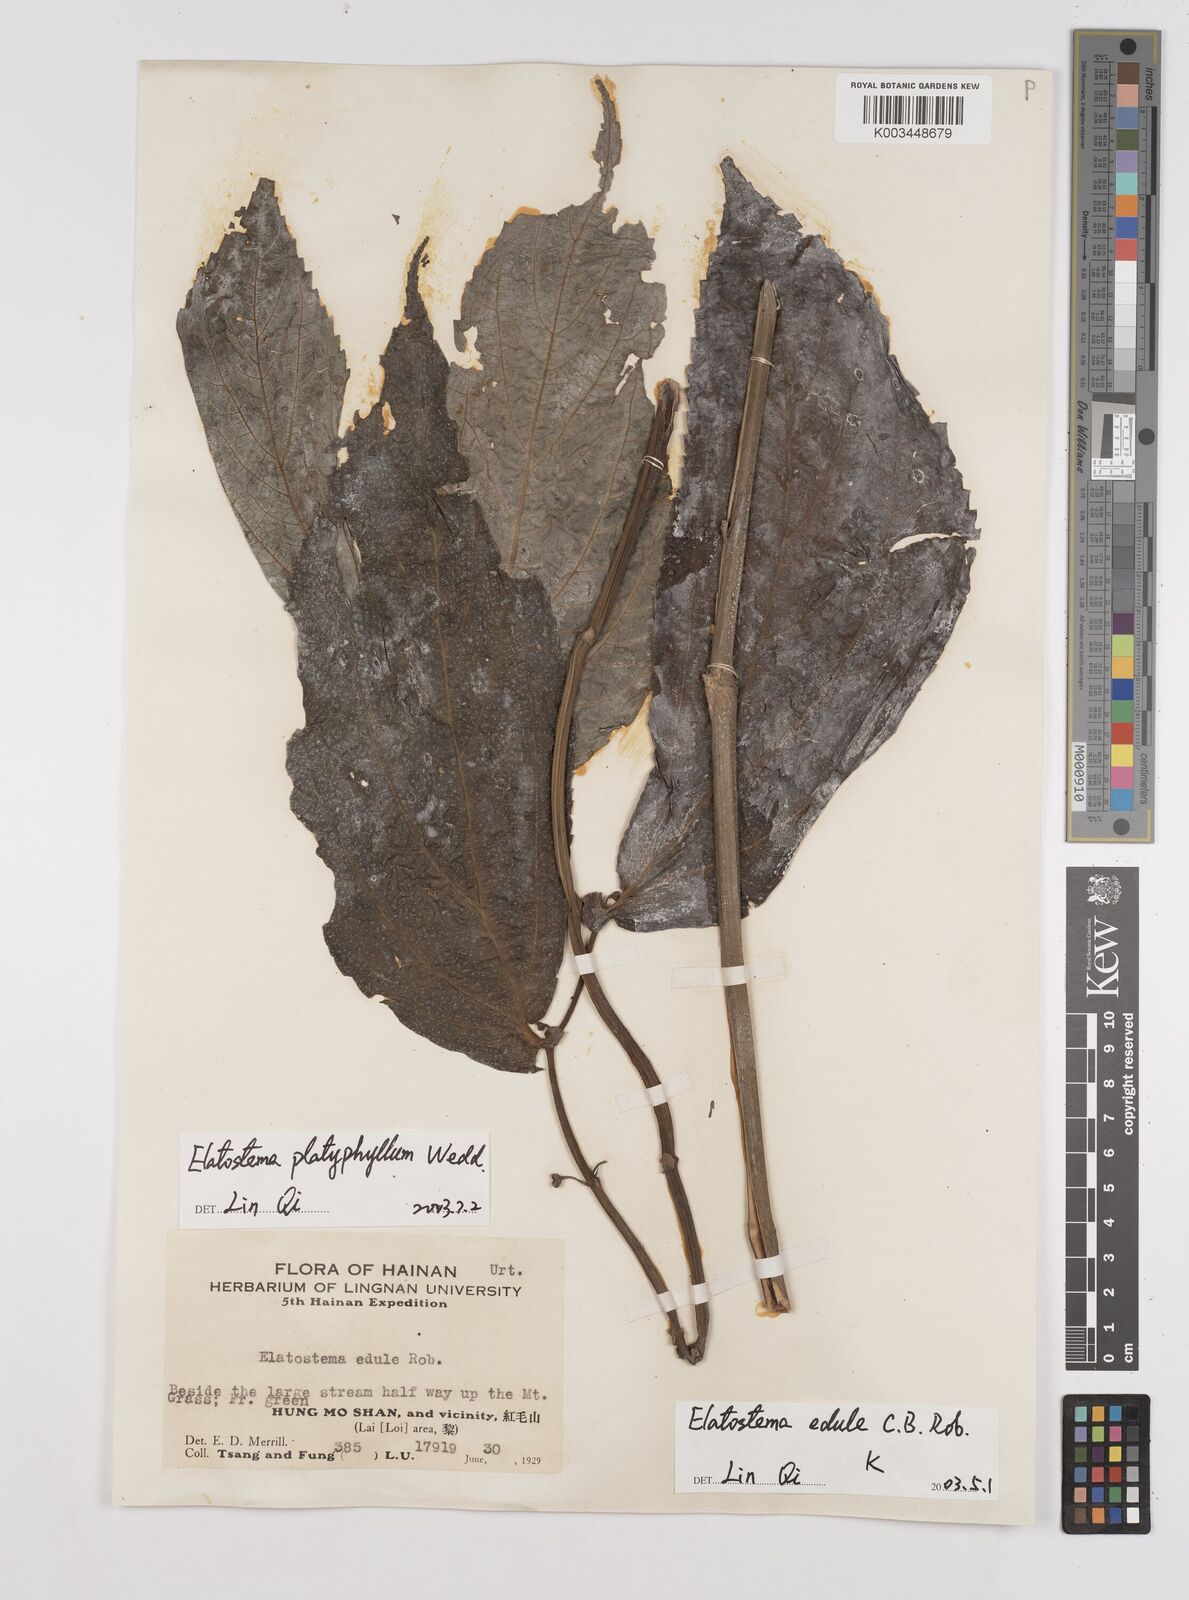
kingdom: Plantae
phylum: Tracheophyta
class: Magnoliopsida
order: Rosales
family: Urticaceae
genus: Elatostema
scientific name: Elatostema platyphyllum
